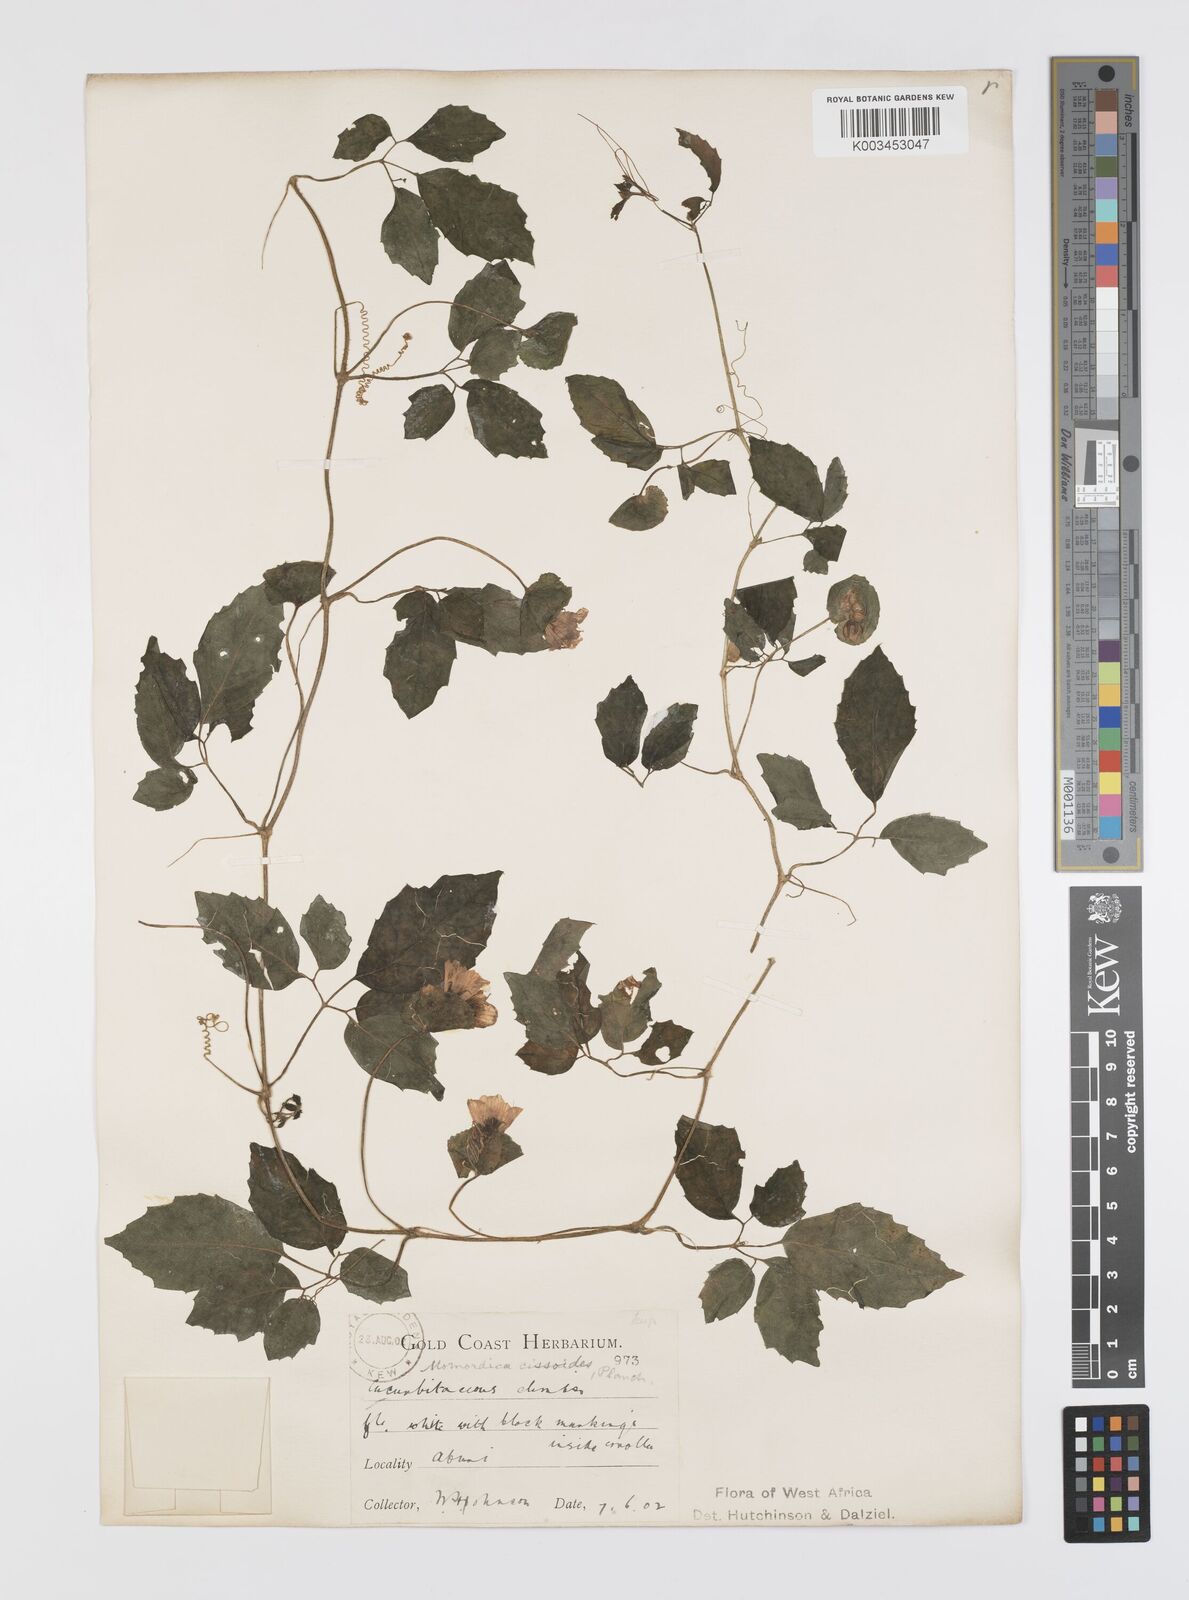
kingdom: Plantae
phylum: Tracheophyta
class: Magnoliopsida
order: Cucurbitales
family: Cucurbitaceae
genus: Momordica
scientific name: Momordica cissoides
